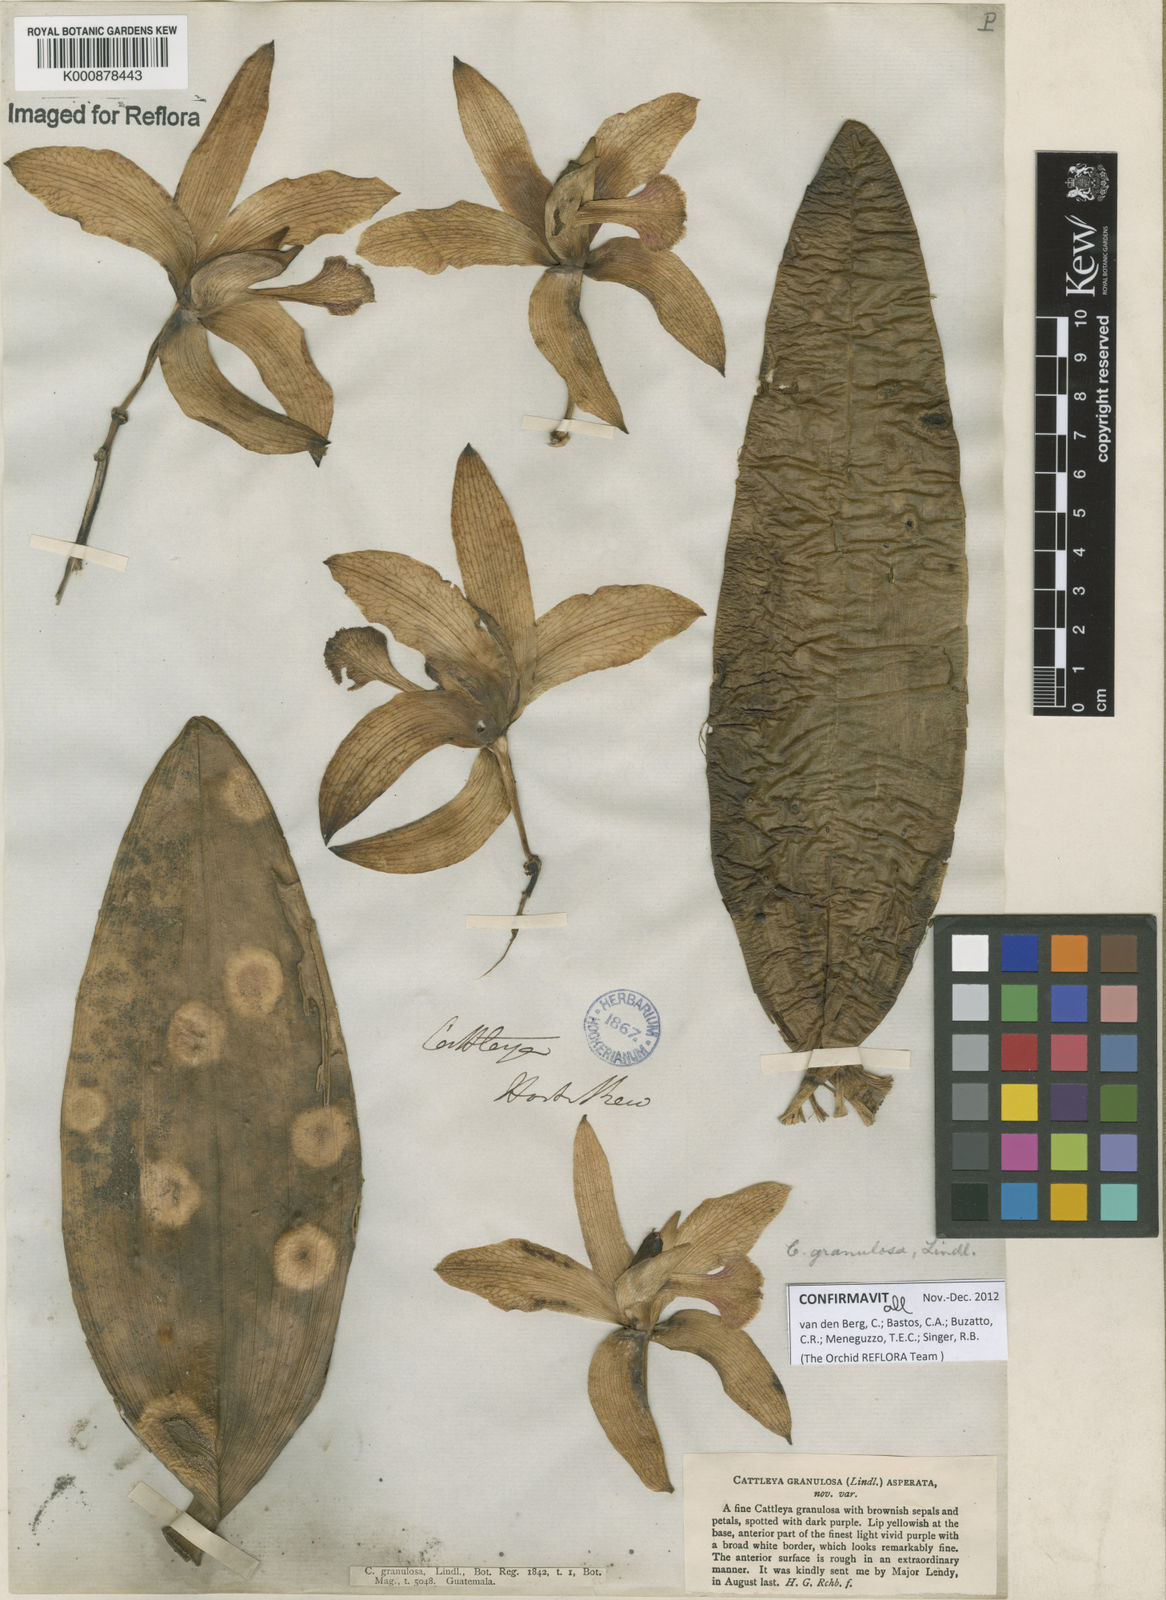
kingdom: Plantae
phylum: Tracheophyta
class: Liliopsida
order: Asparagales
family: Orchidaceae
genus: Cattleya
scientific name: Cattleya granulosa
